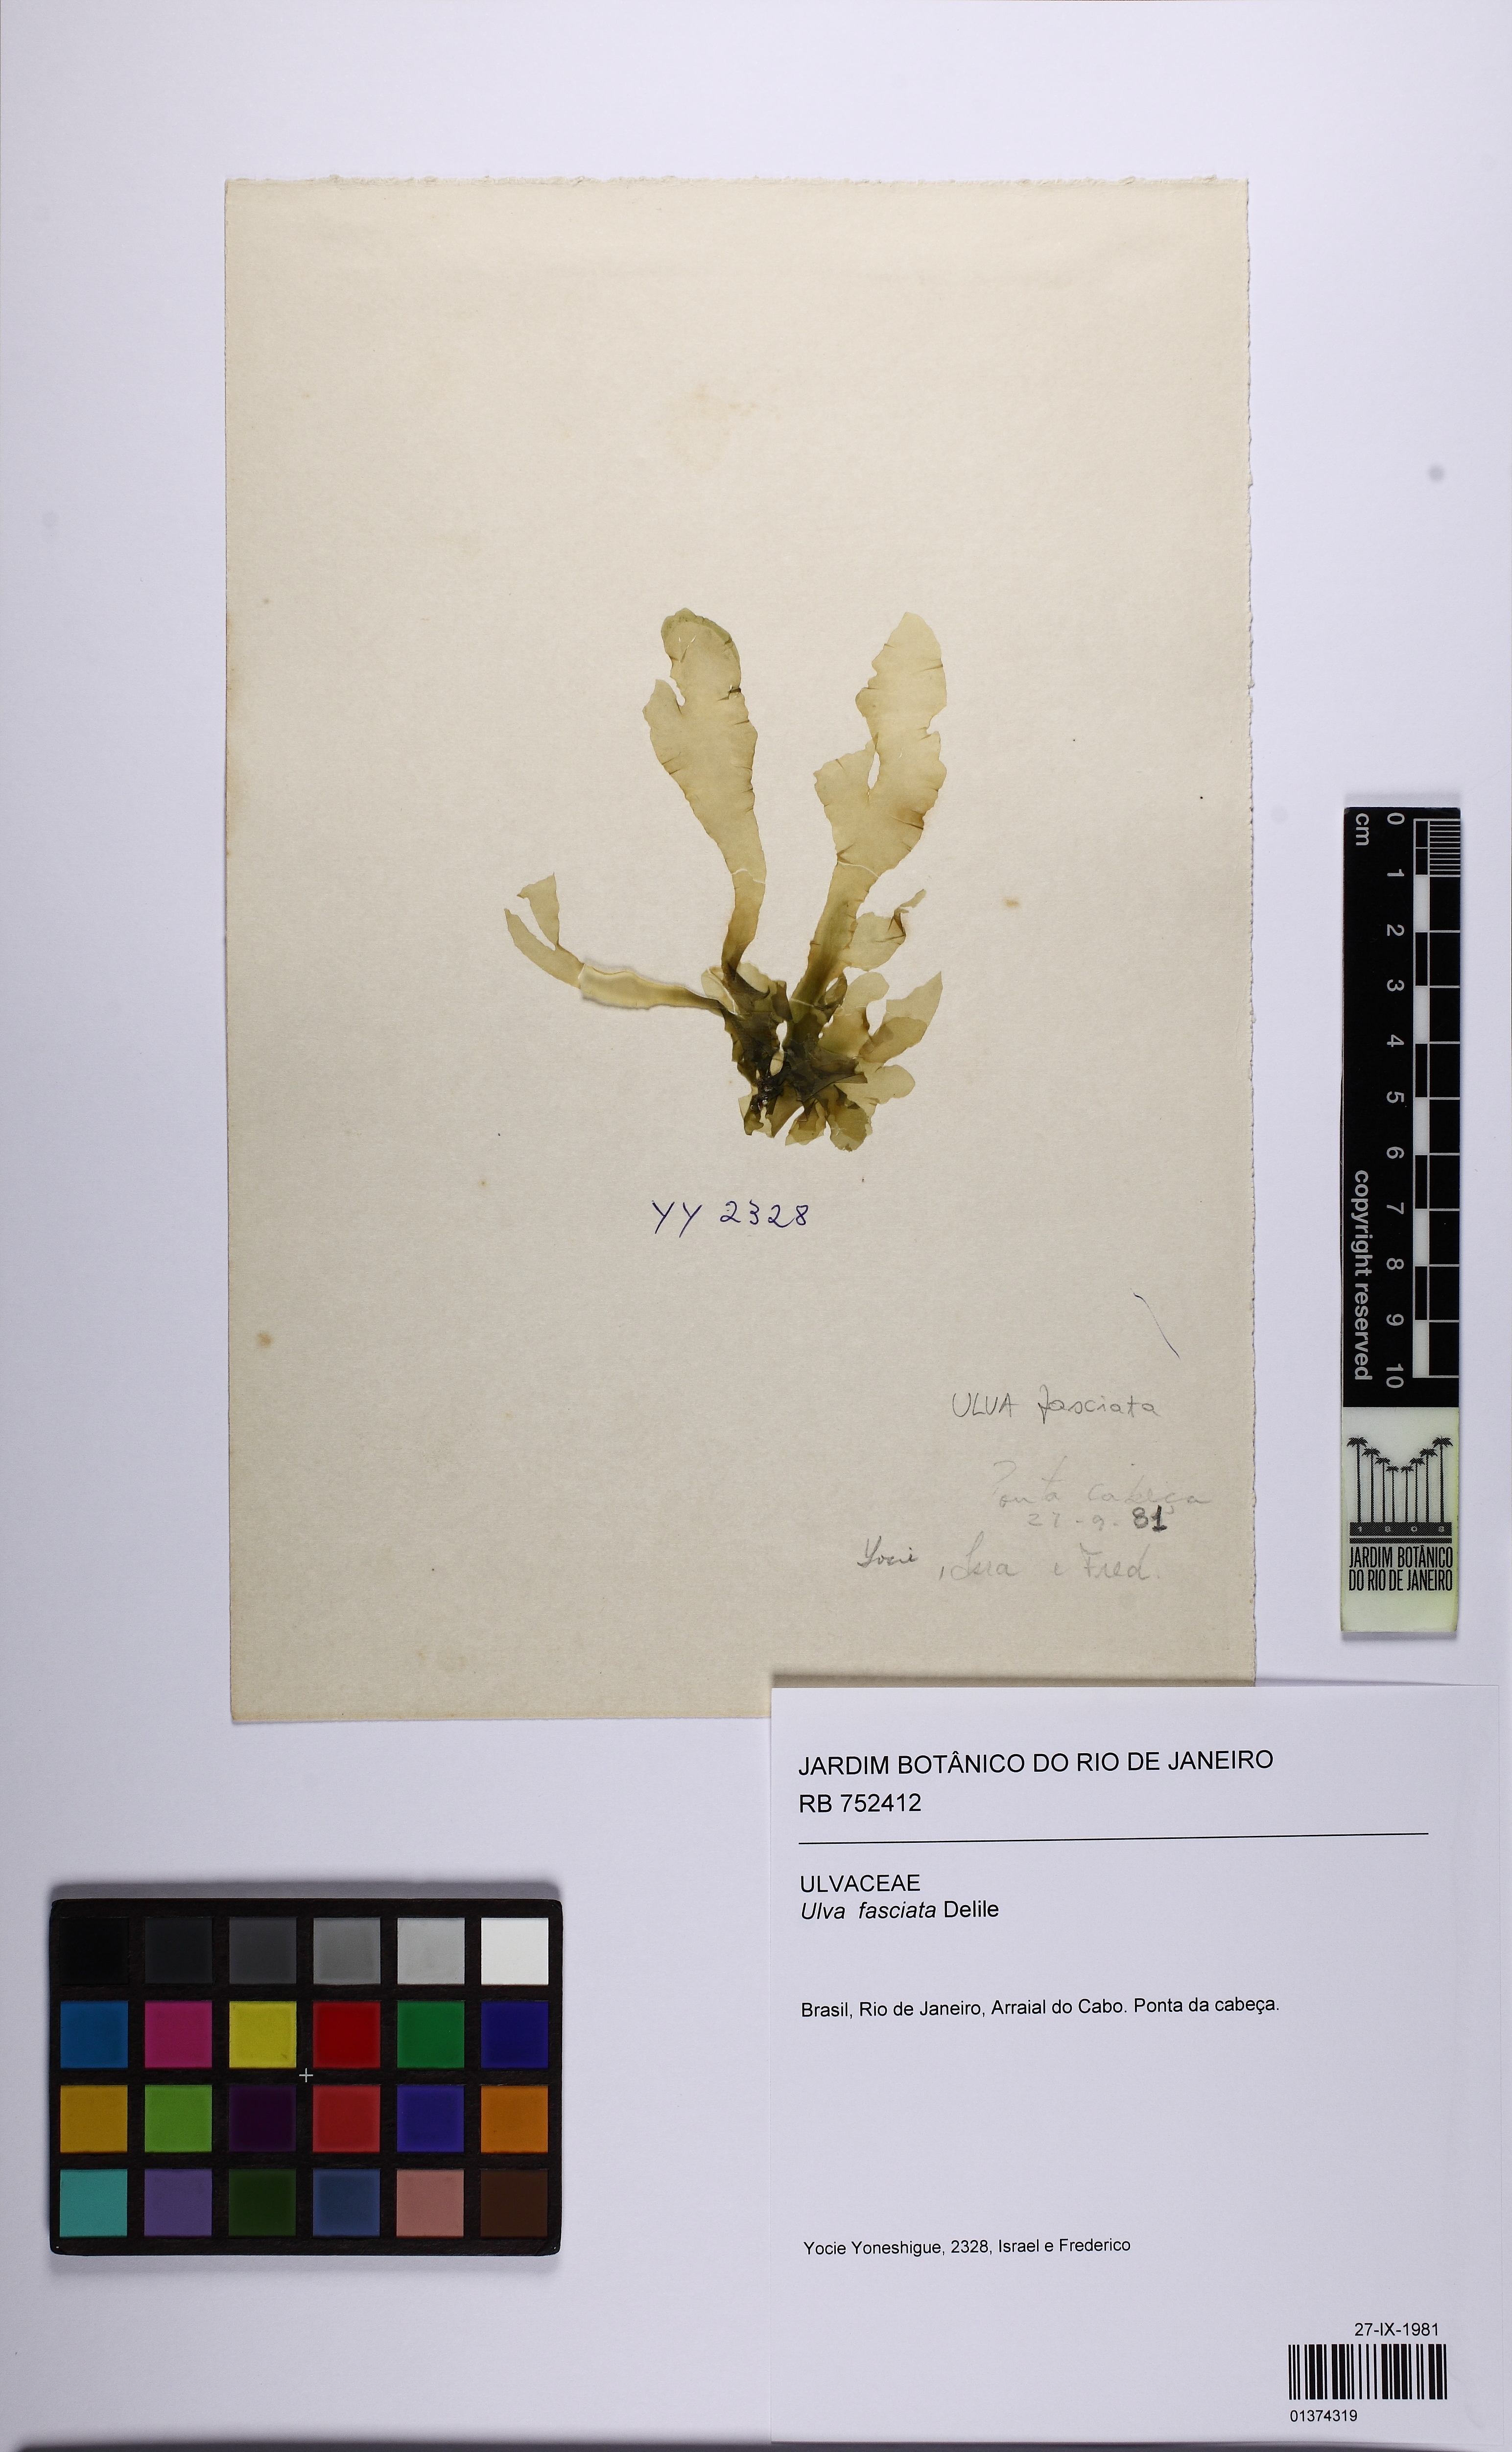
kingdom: Plantae
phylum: Chlorophyta
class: Ulvophyceae
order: Ulvales
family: Ulvaceae
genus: Ulva
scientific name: Ulva lactuca
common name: Sea lettuce
